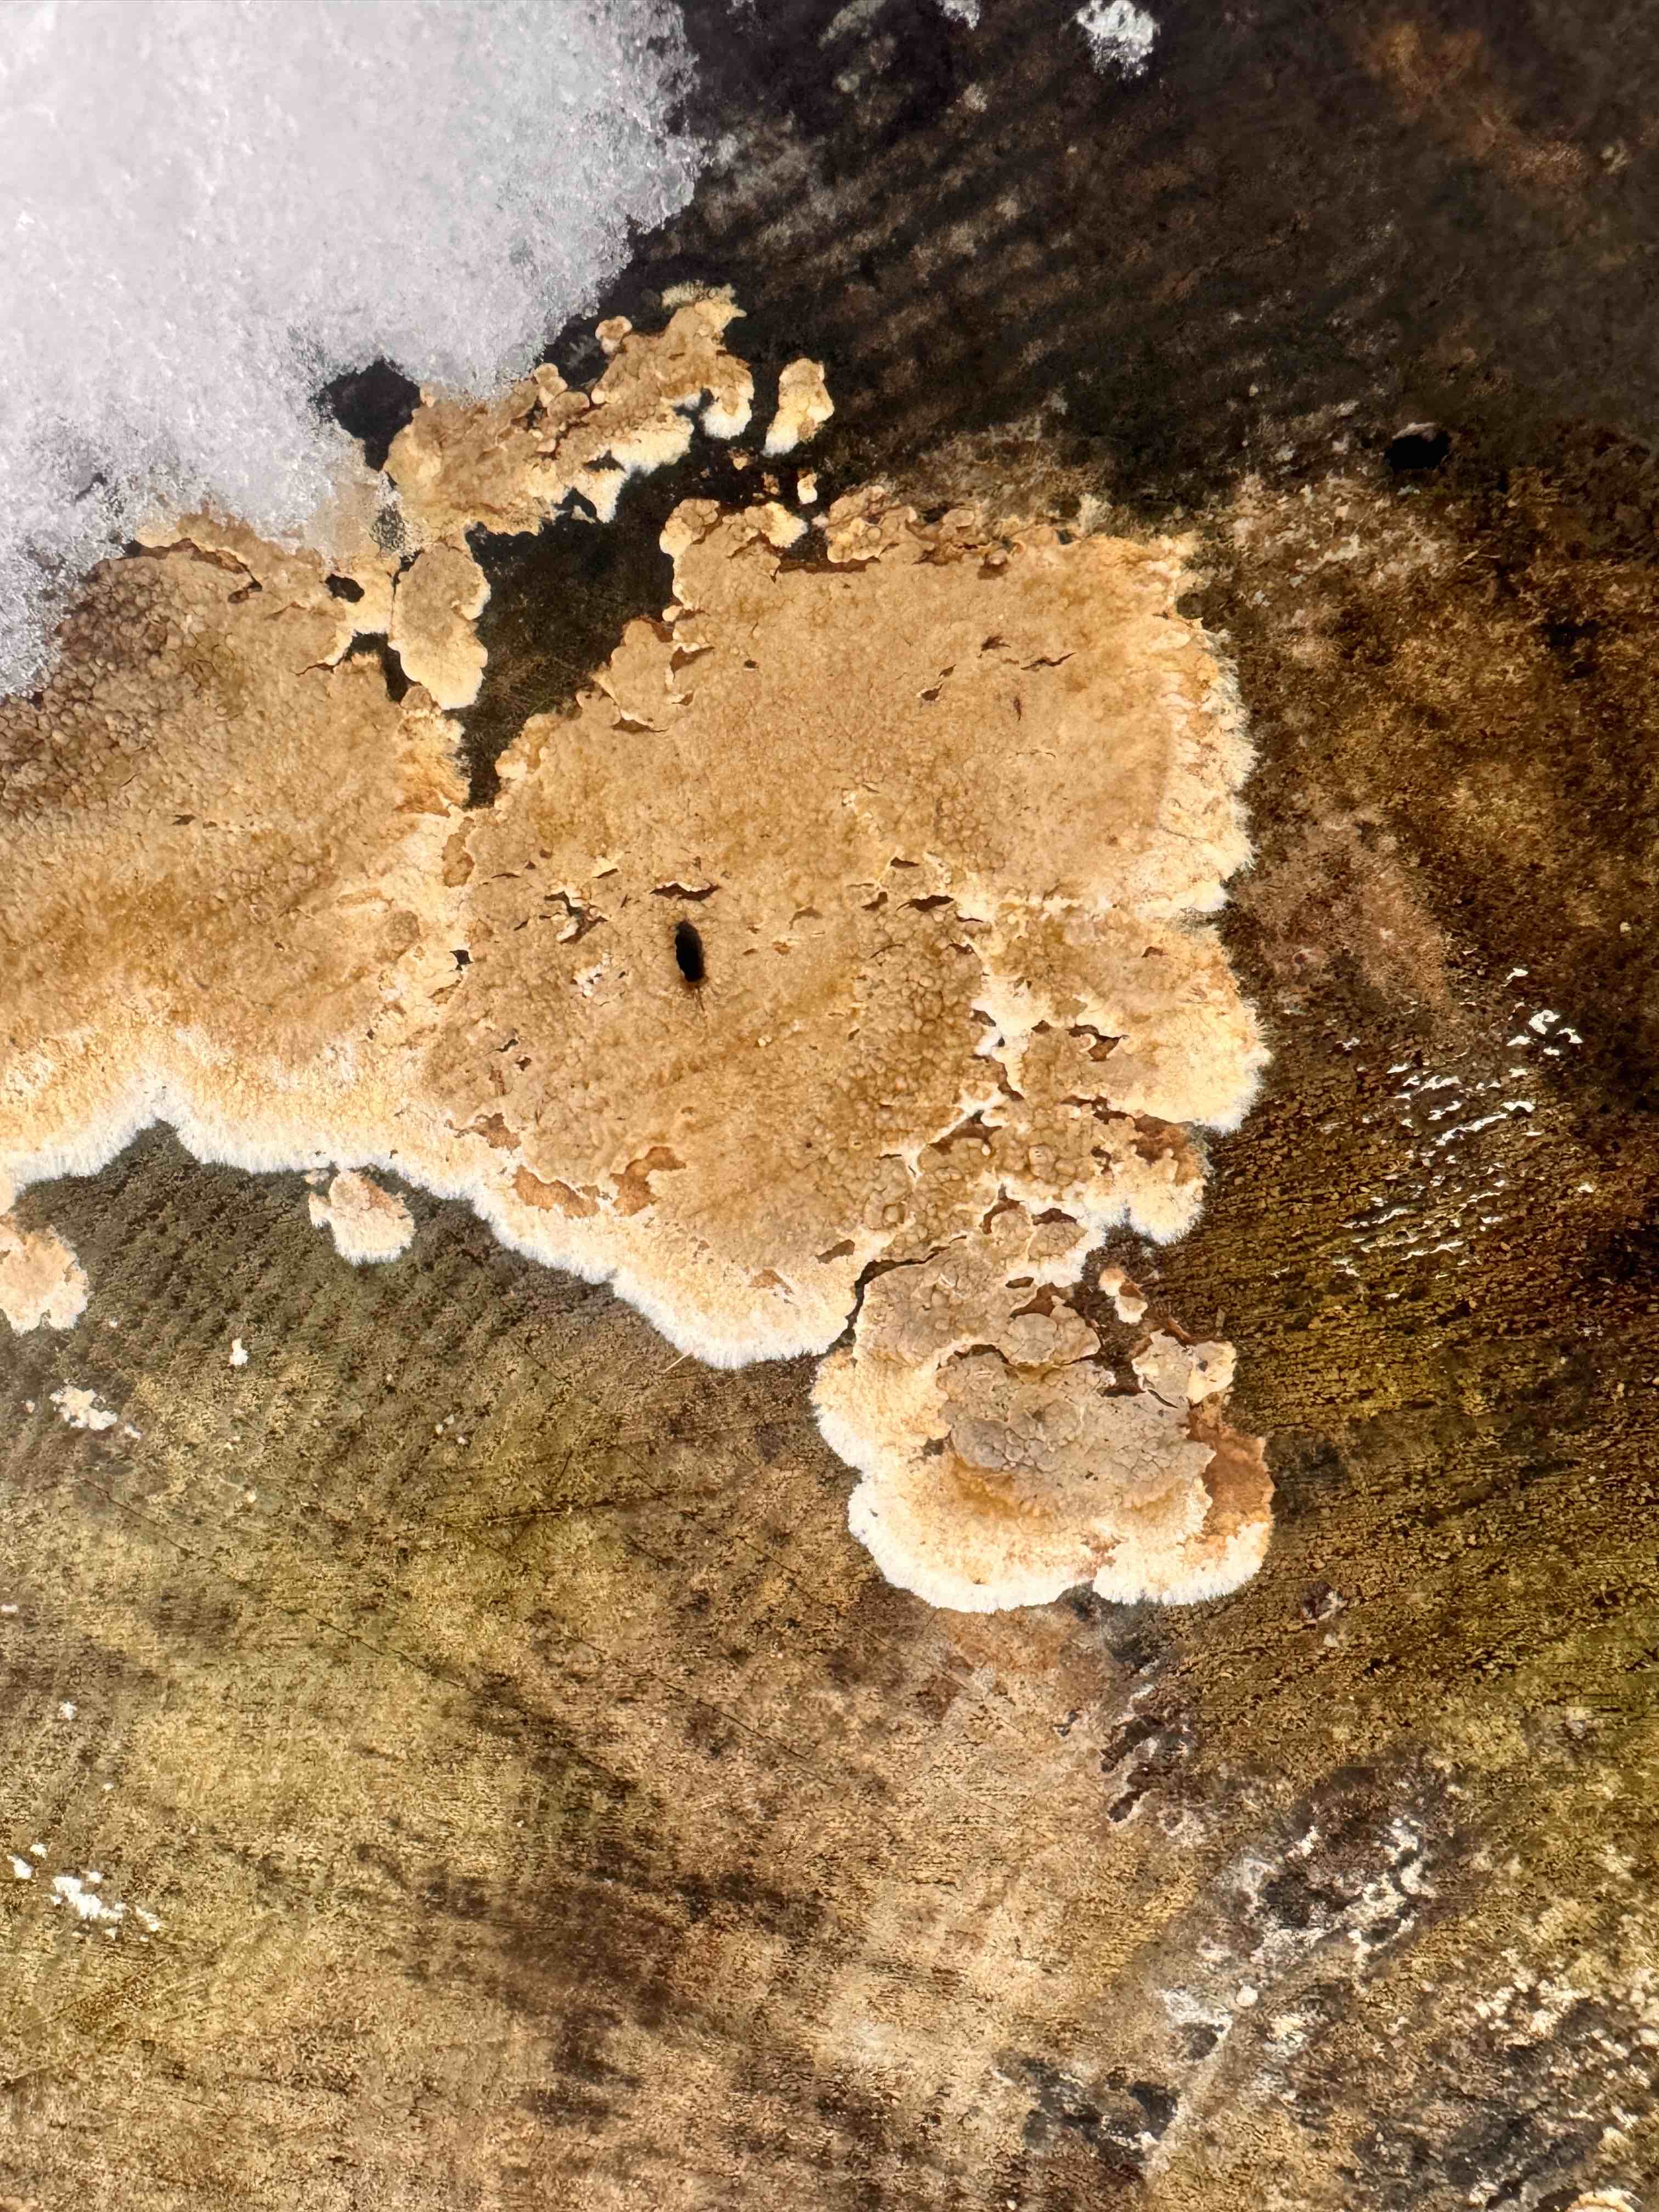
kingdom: Fungi
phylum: Basidiomycota
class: Agaricomycetes
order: Boletales
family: Coniophoraceae
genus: Coniophora
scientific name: Coniophora puteana
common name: gul tømmersvamp
